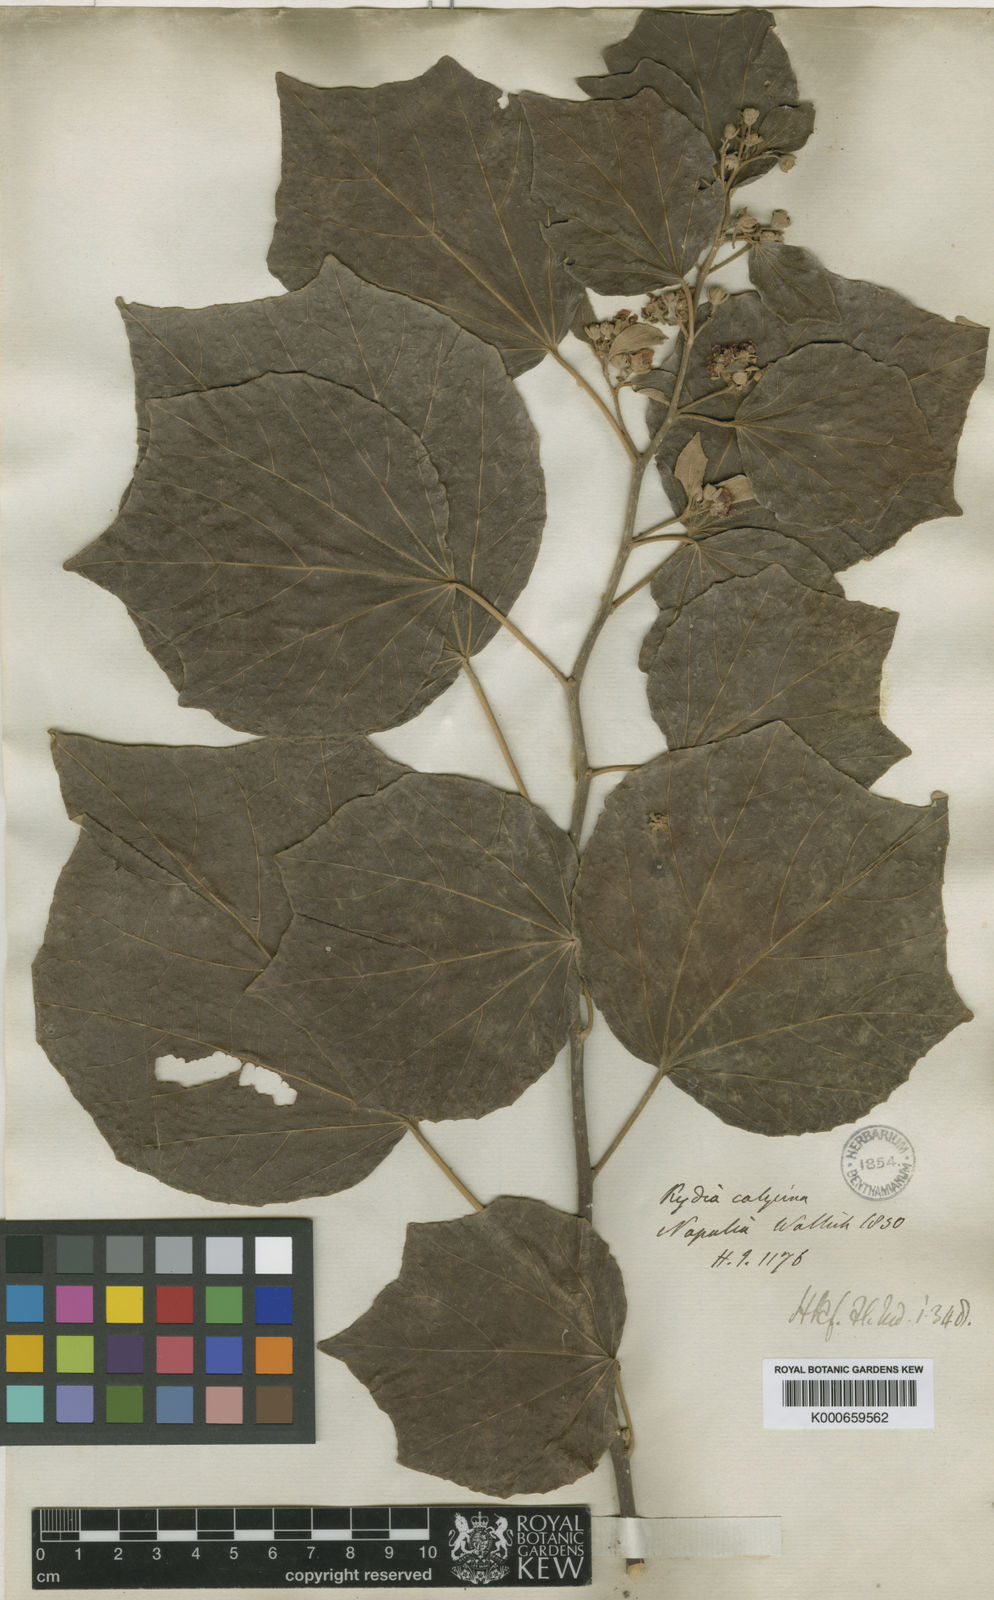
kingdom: Plantae
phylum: Tracheophyta
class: Magnoliopsida
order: Malvales
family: Malvaceae
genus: Kydia
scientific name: Kydia calycina
